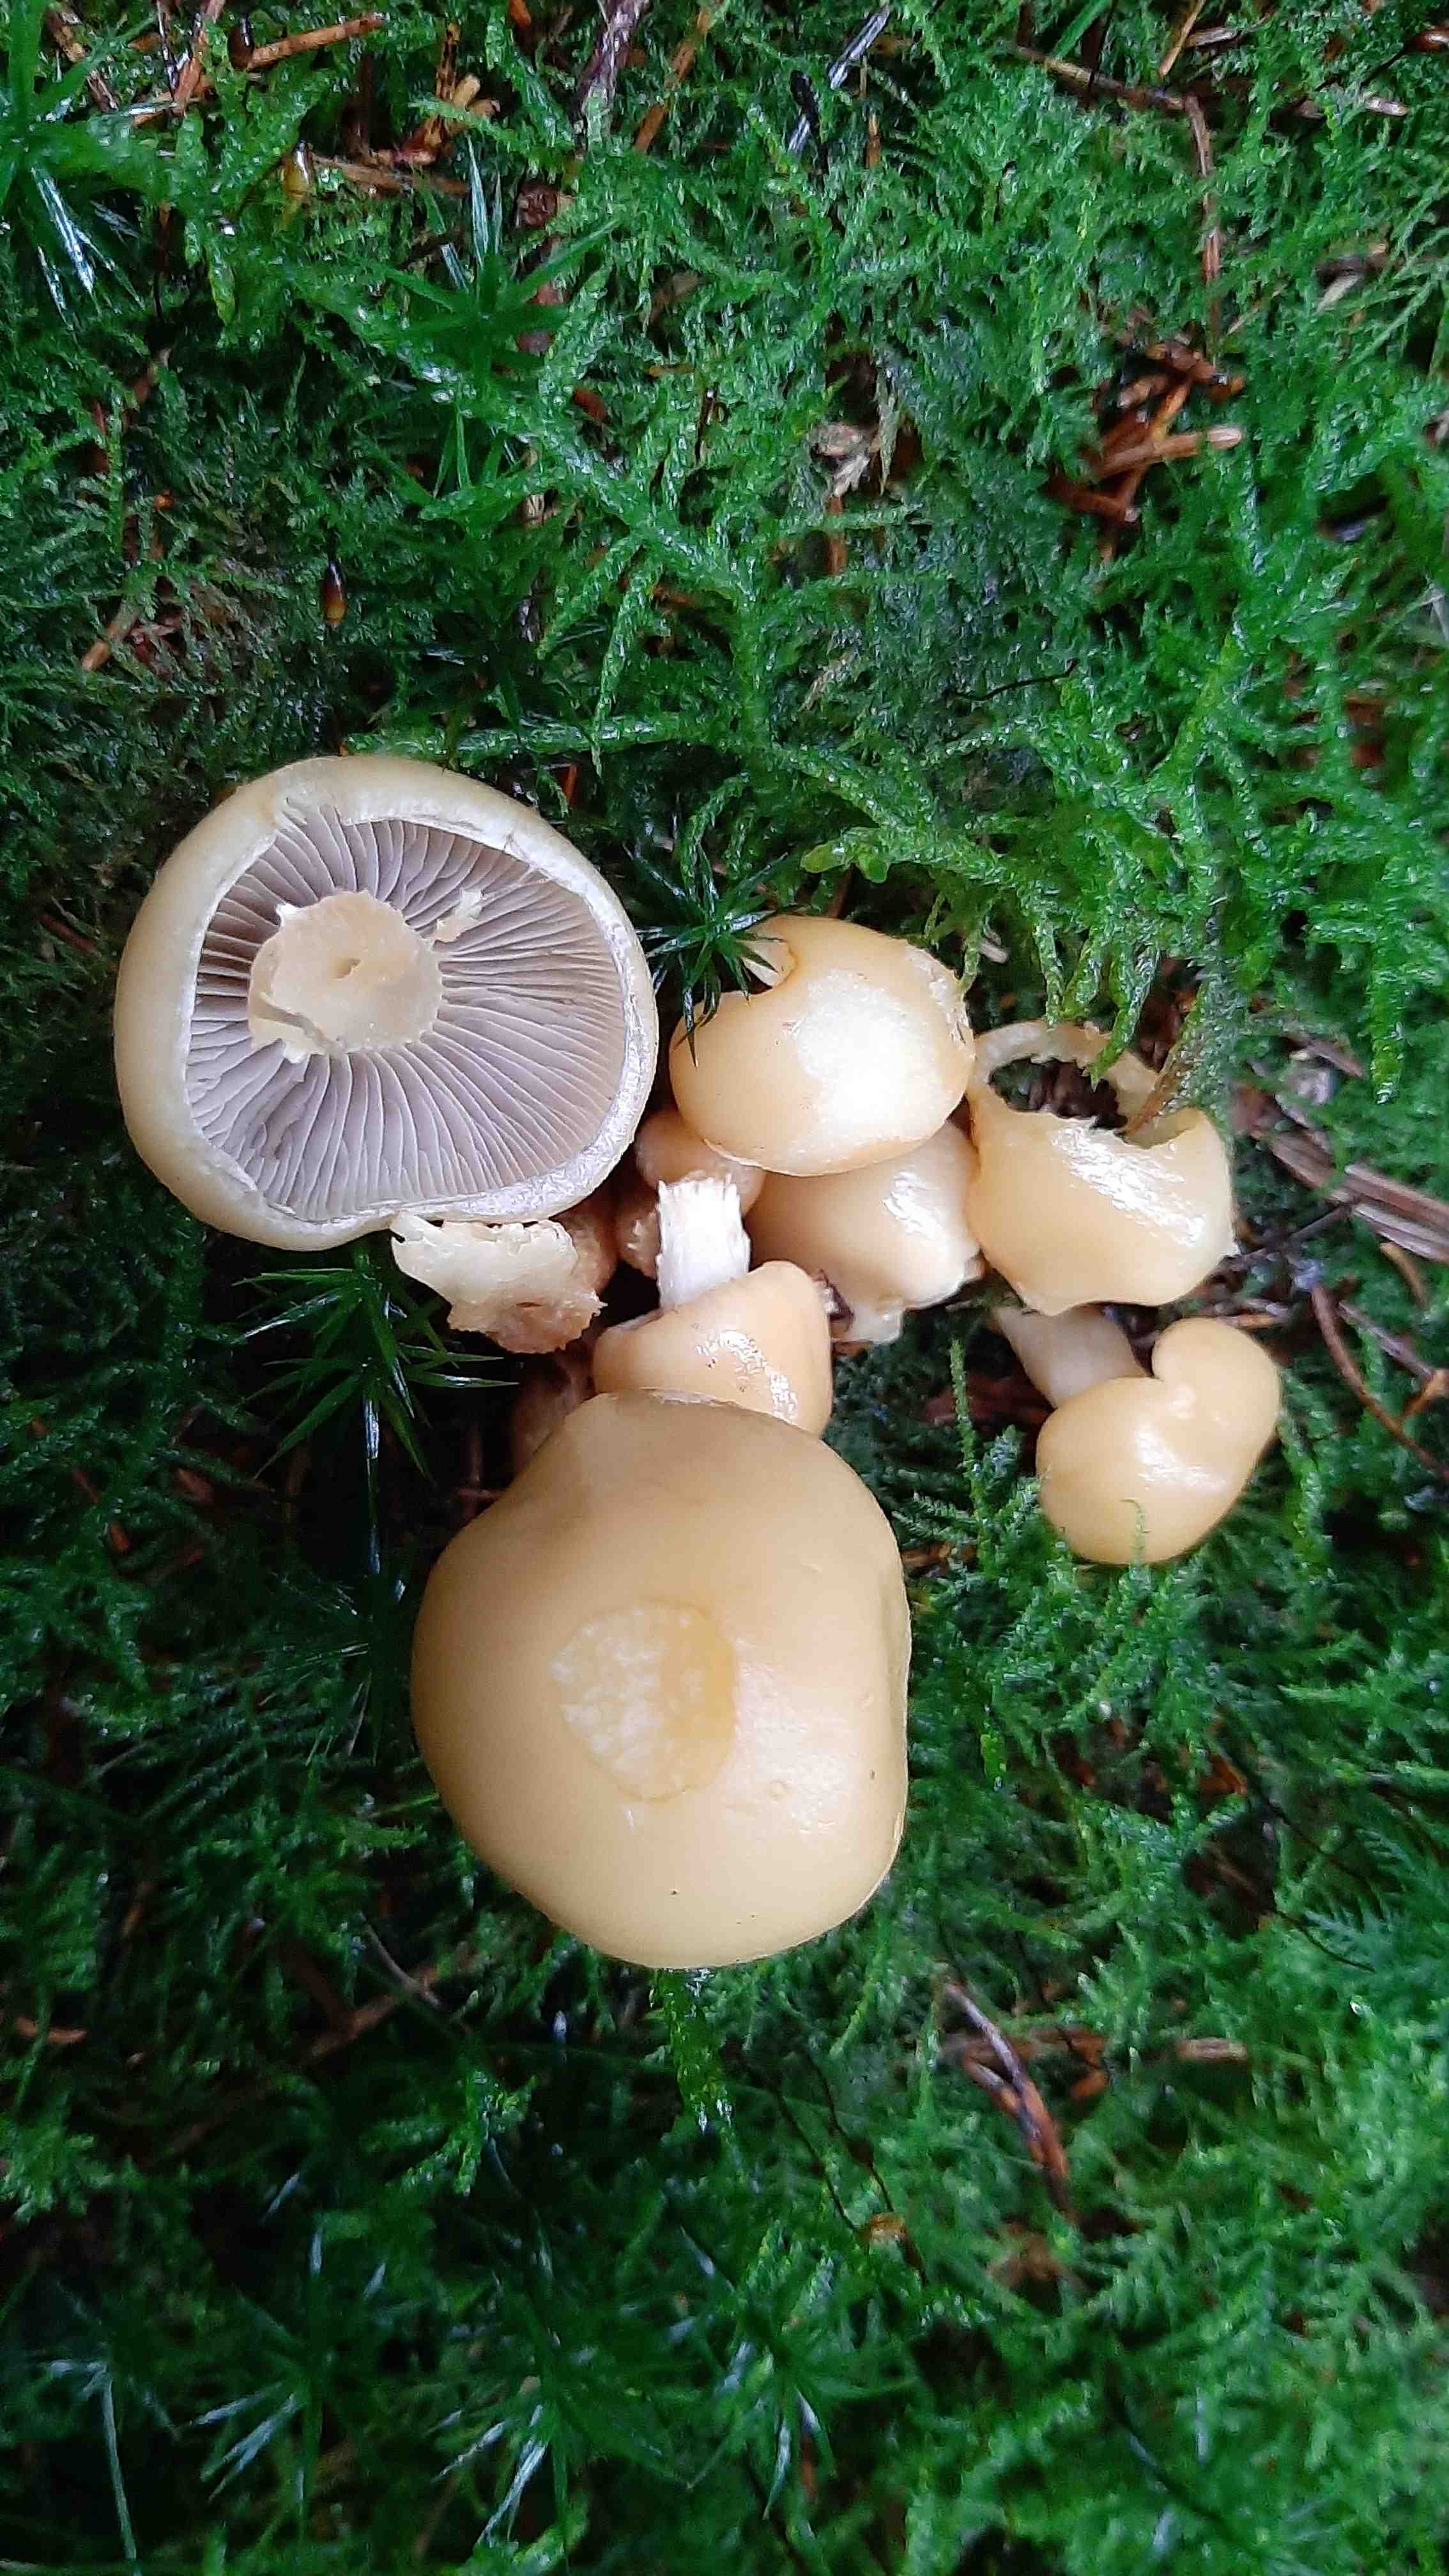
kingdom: Fungi
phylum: Basidiomycota
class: Agaricomycetes
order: Agaricales
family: Strophariaceae
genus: Hypholoma
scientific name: Hypholoma capnoides
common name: gran-svovlhat
